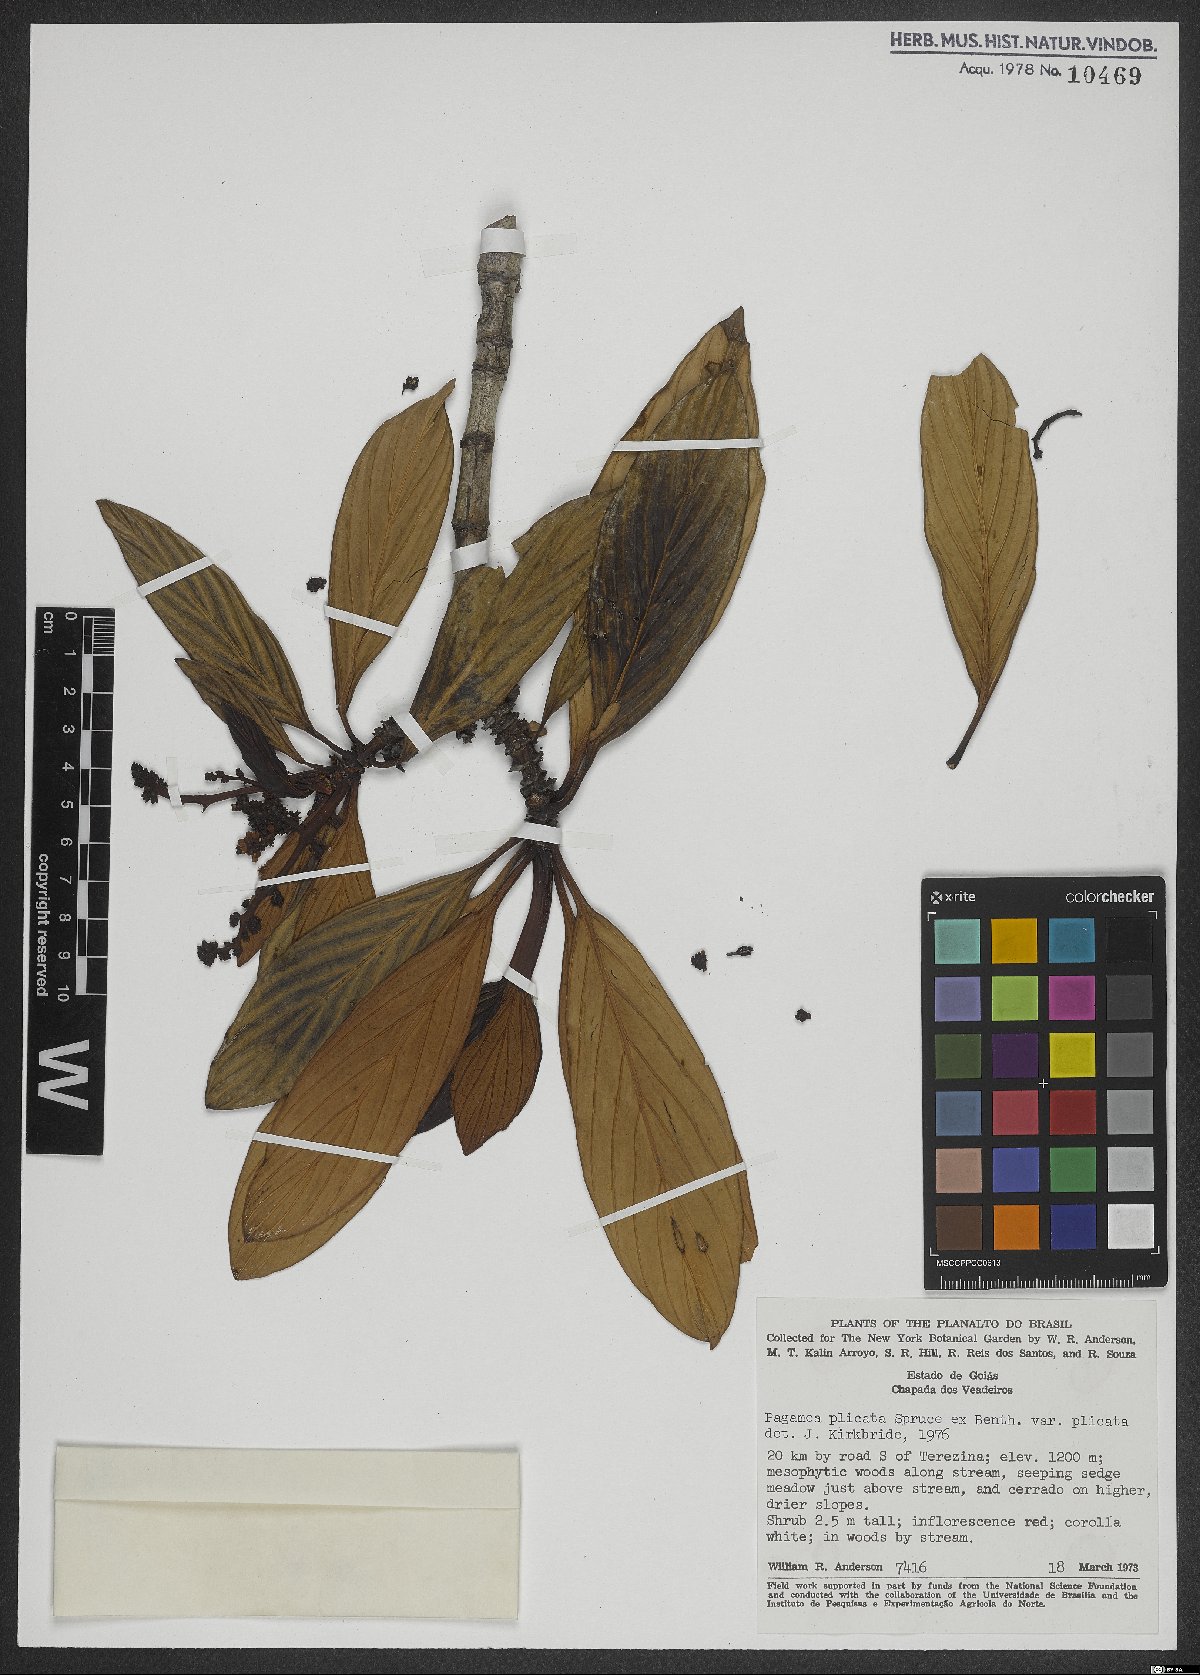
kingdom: Plantae
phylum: Tracheophyta
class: Magnoliopsida
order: Gentianales
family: Rubiaceae
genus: Pagamea
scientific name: Pagamea plicata
